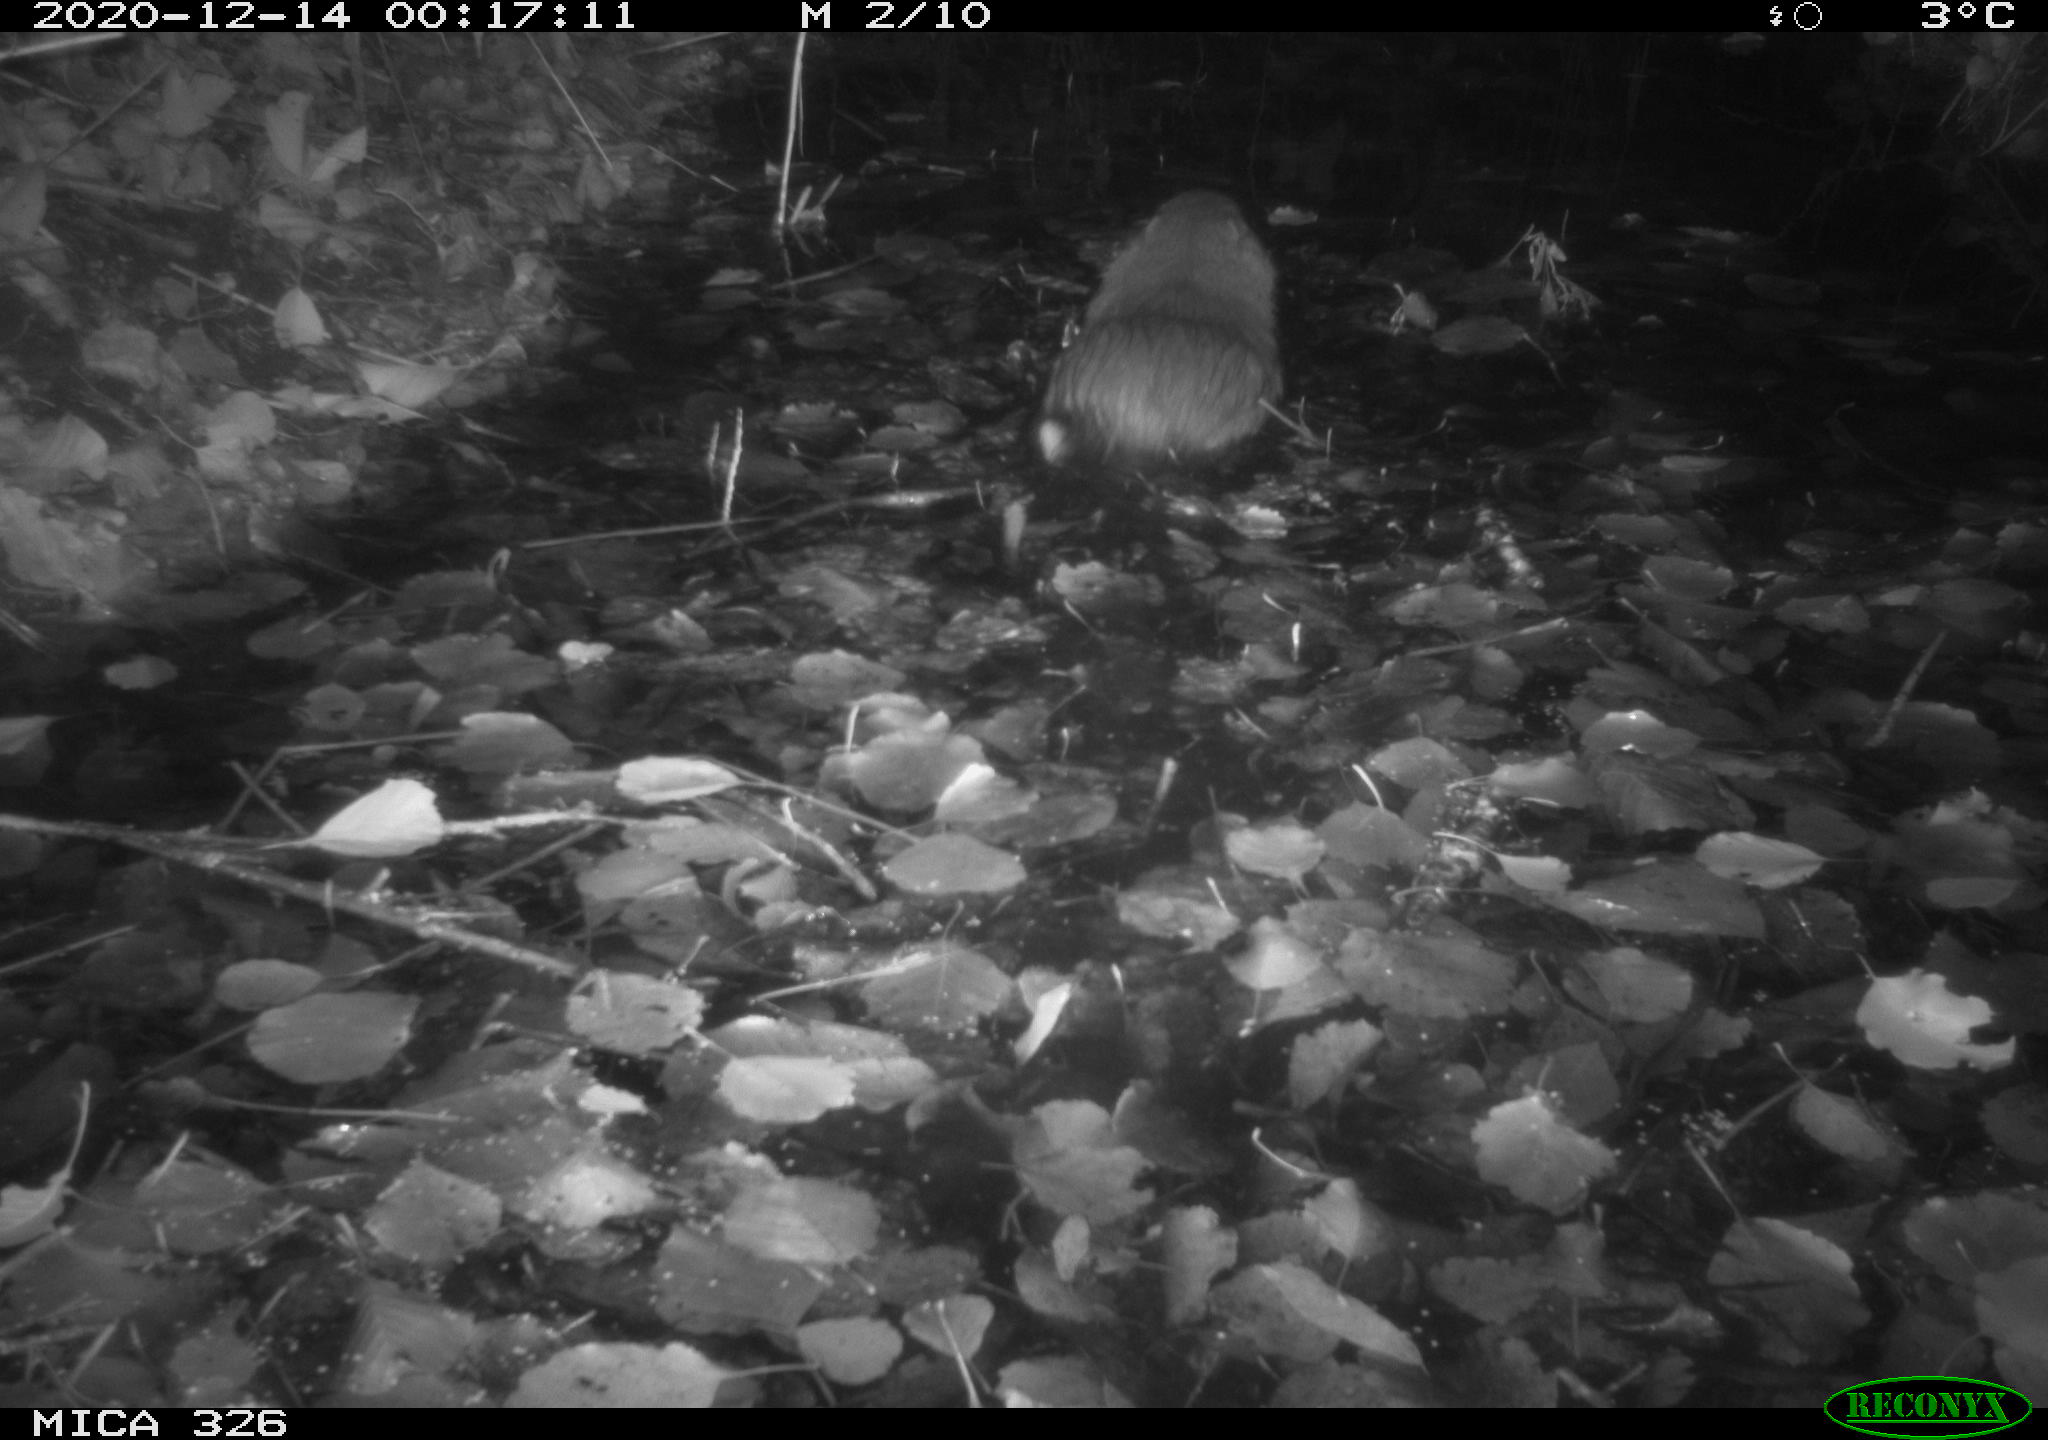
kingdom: Animalia
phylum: Chordata
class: Mammalia
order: Rodentia
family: Myocastoridae
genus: Myocastor
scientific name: Myocastor coypus
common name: Coypu
